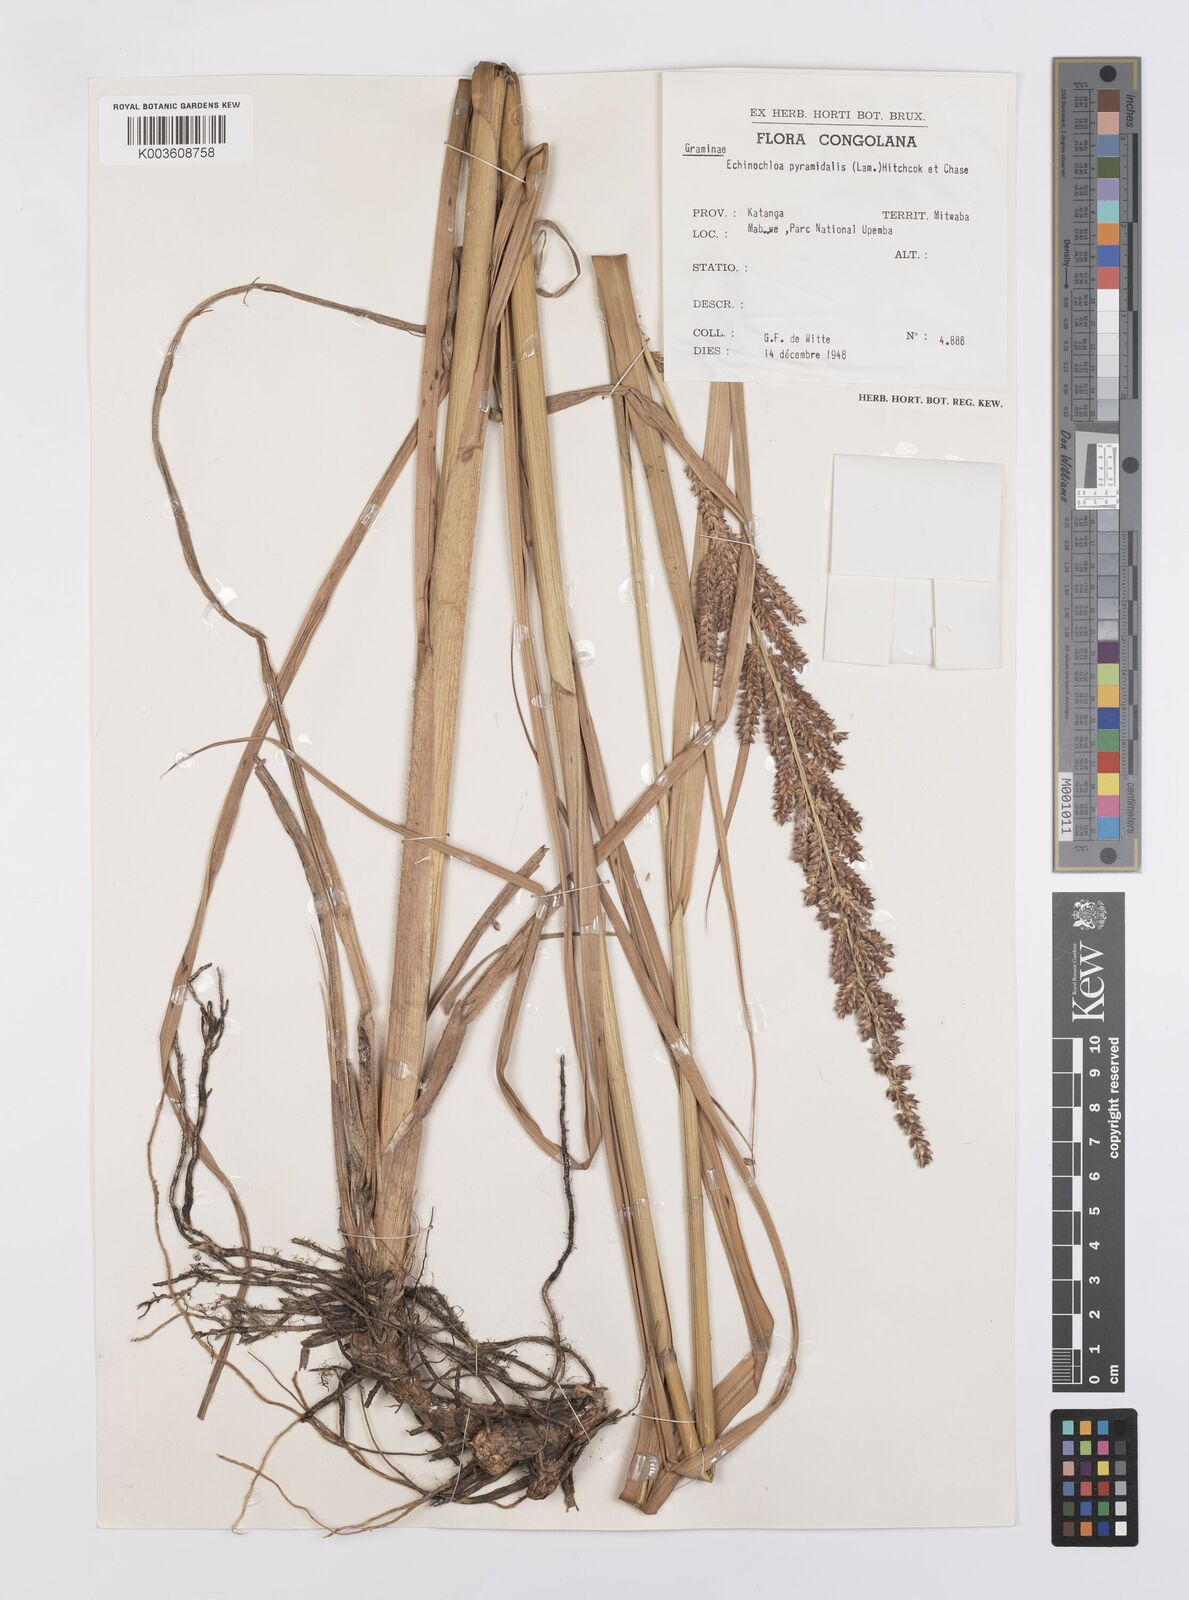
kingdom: Plantae
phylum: Tracheophyta
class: Liliopsida
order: Poales
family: Poaceae
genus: Echinochloa
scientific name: Echinochloa pyramidalis
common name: Antelope grass
